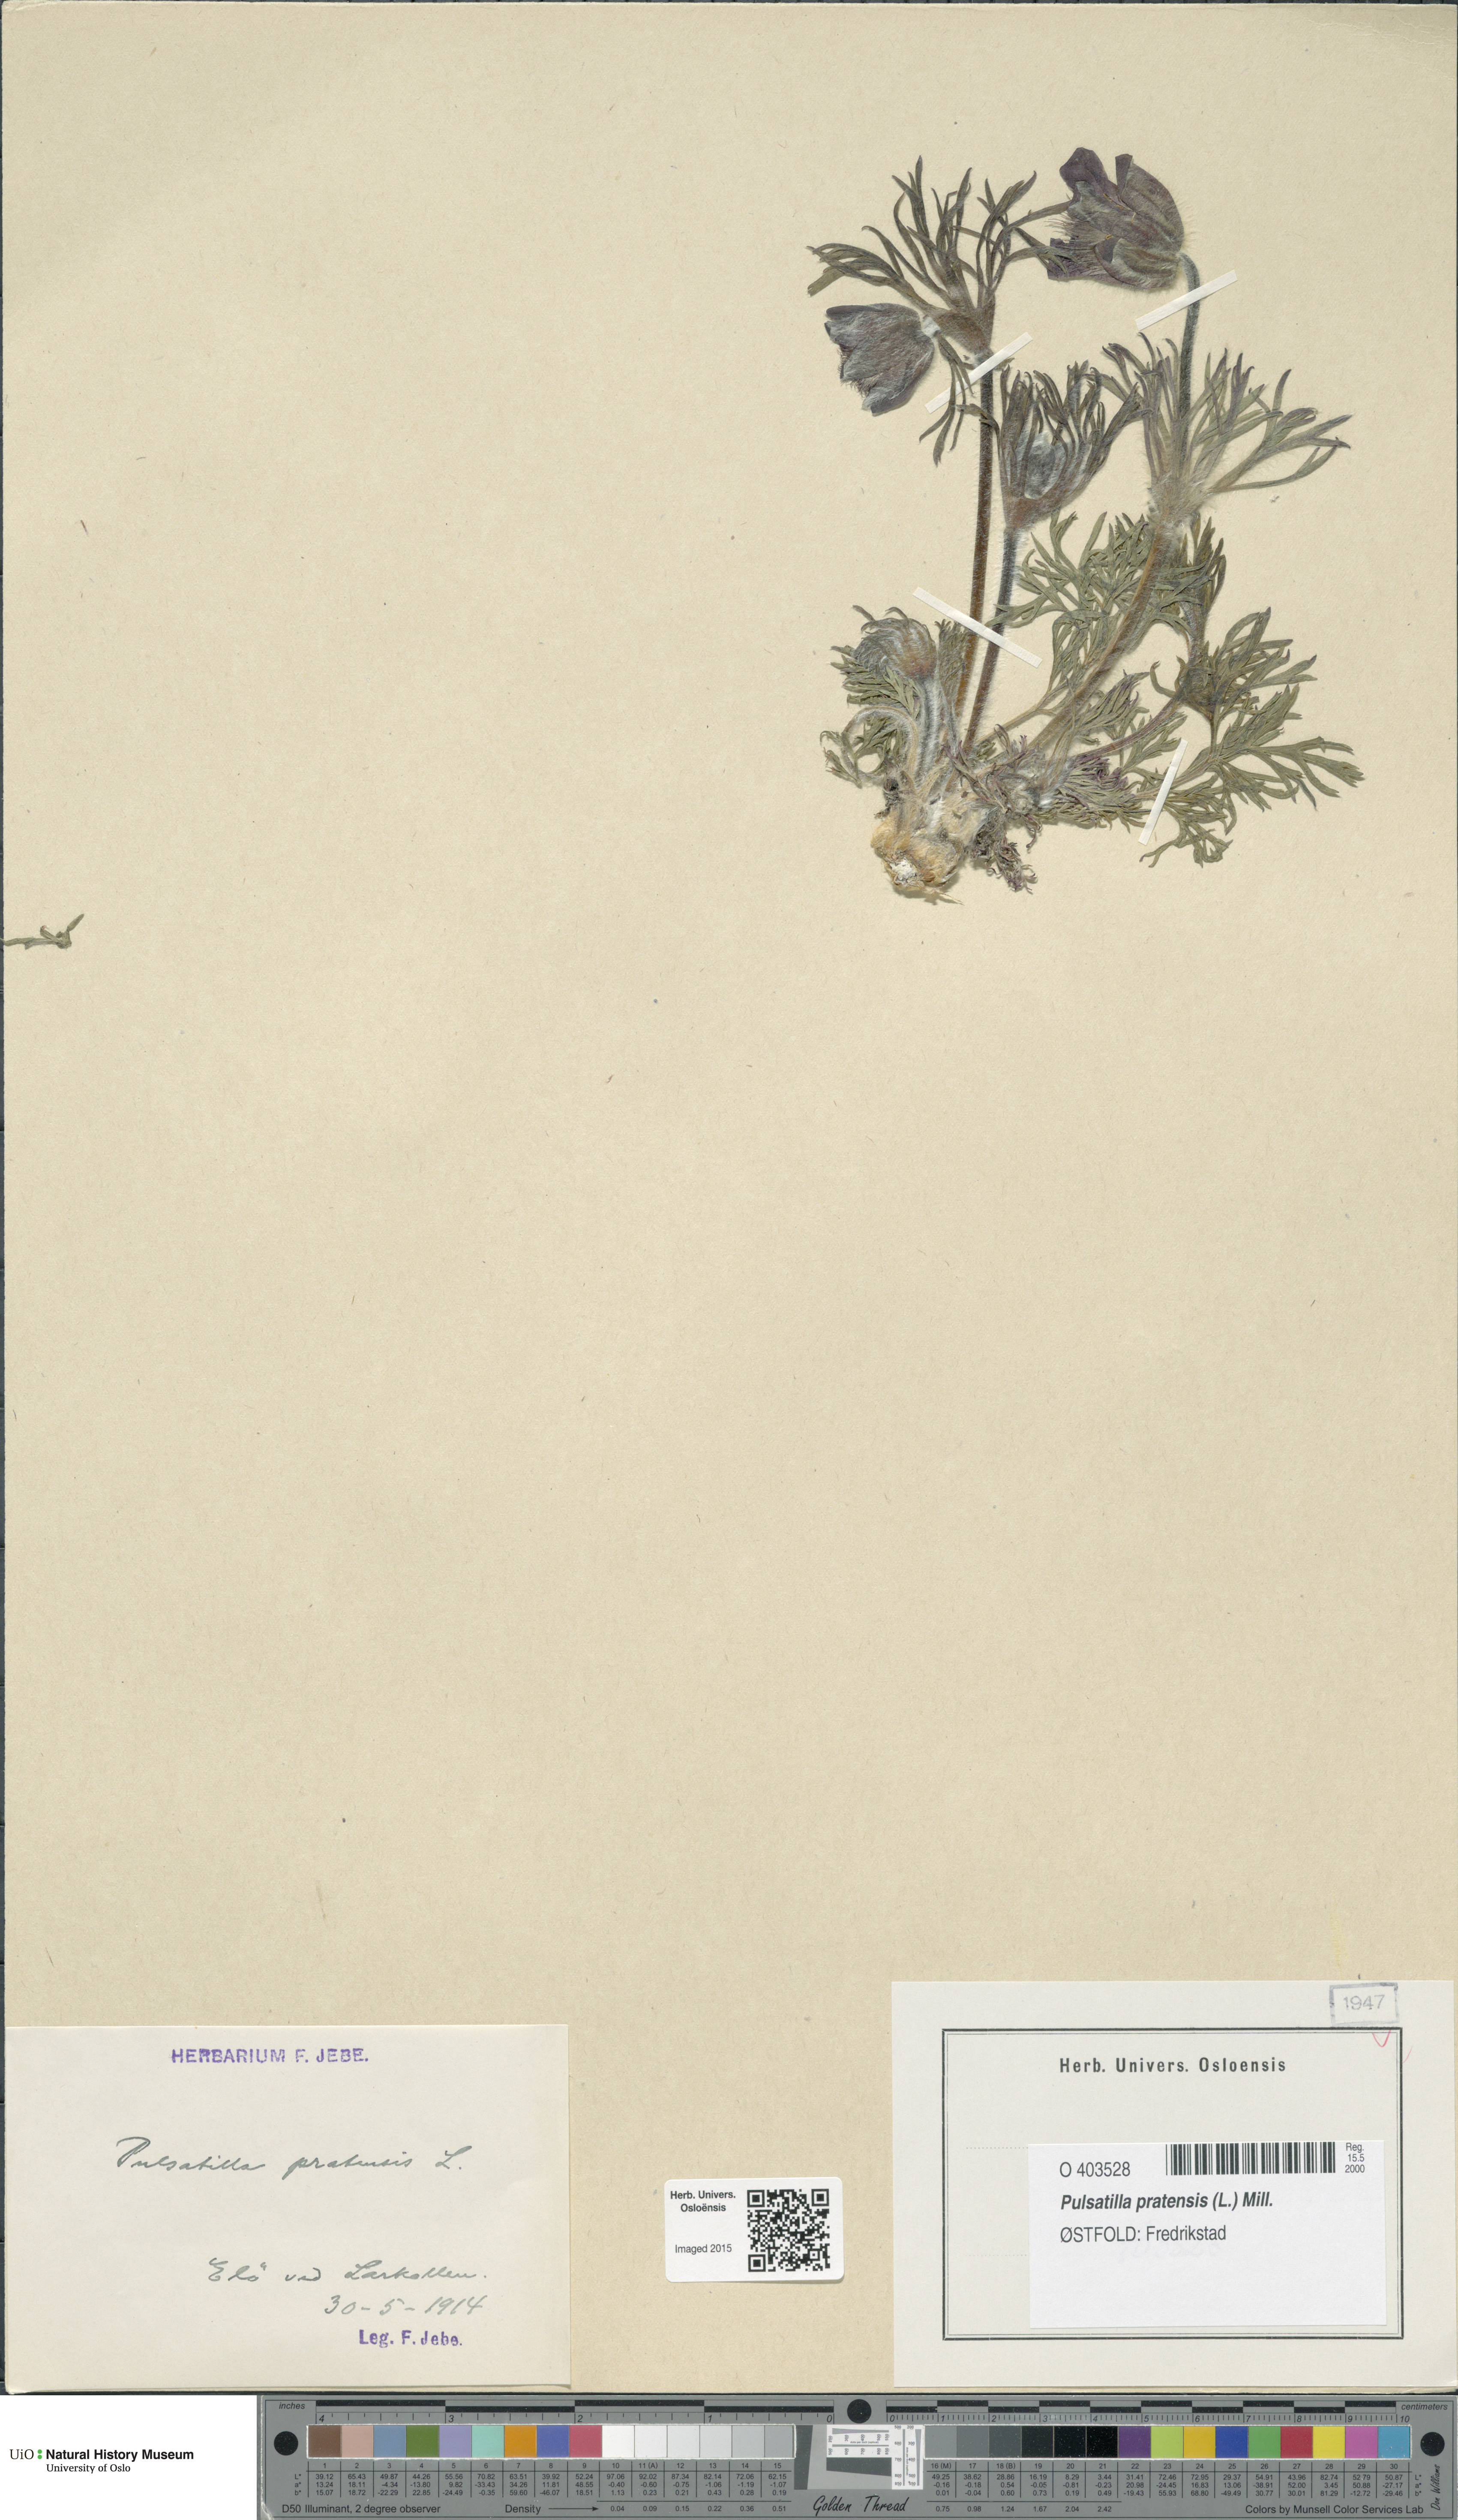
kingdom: Plantae
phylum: Tracheophyta
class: Magnoliopsida
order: Ranunculales
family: Ranunculaceae
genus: Pulsatilla
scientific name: Pulsatilla pratensis
